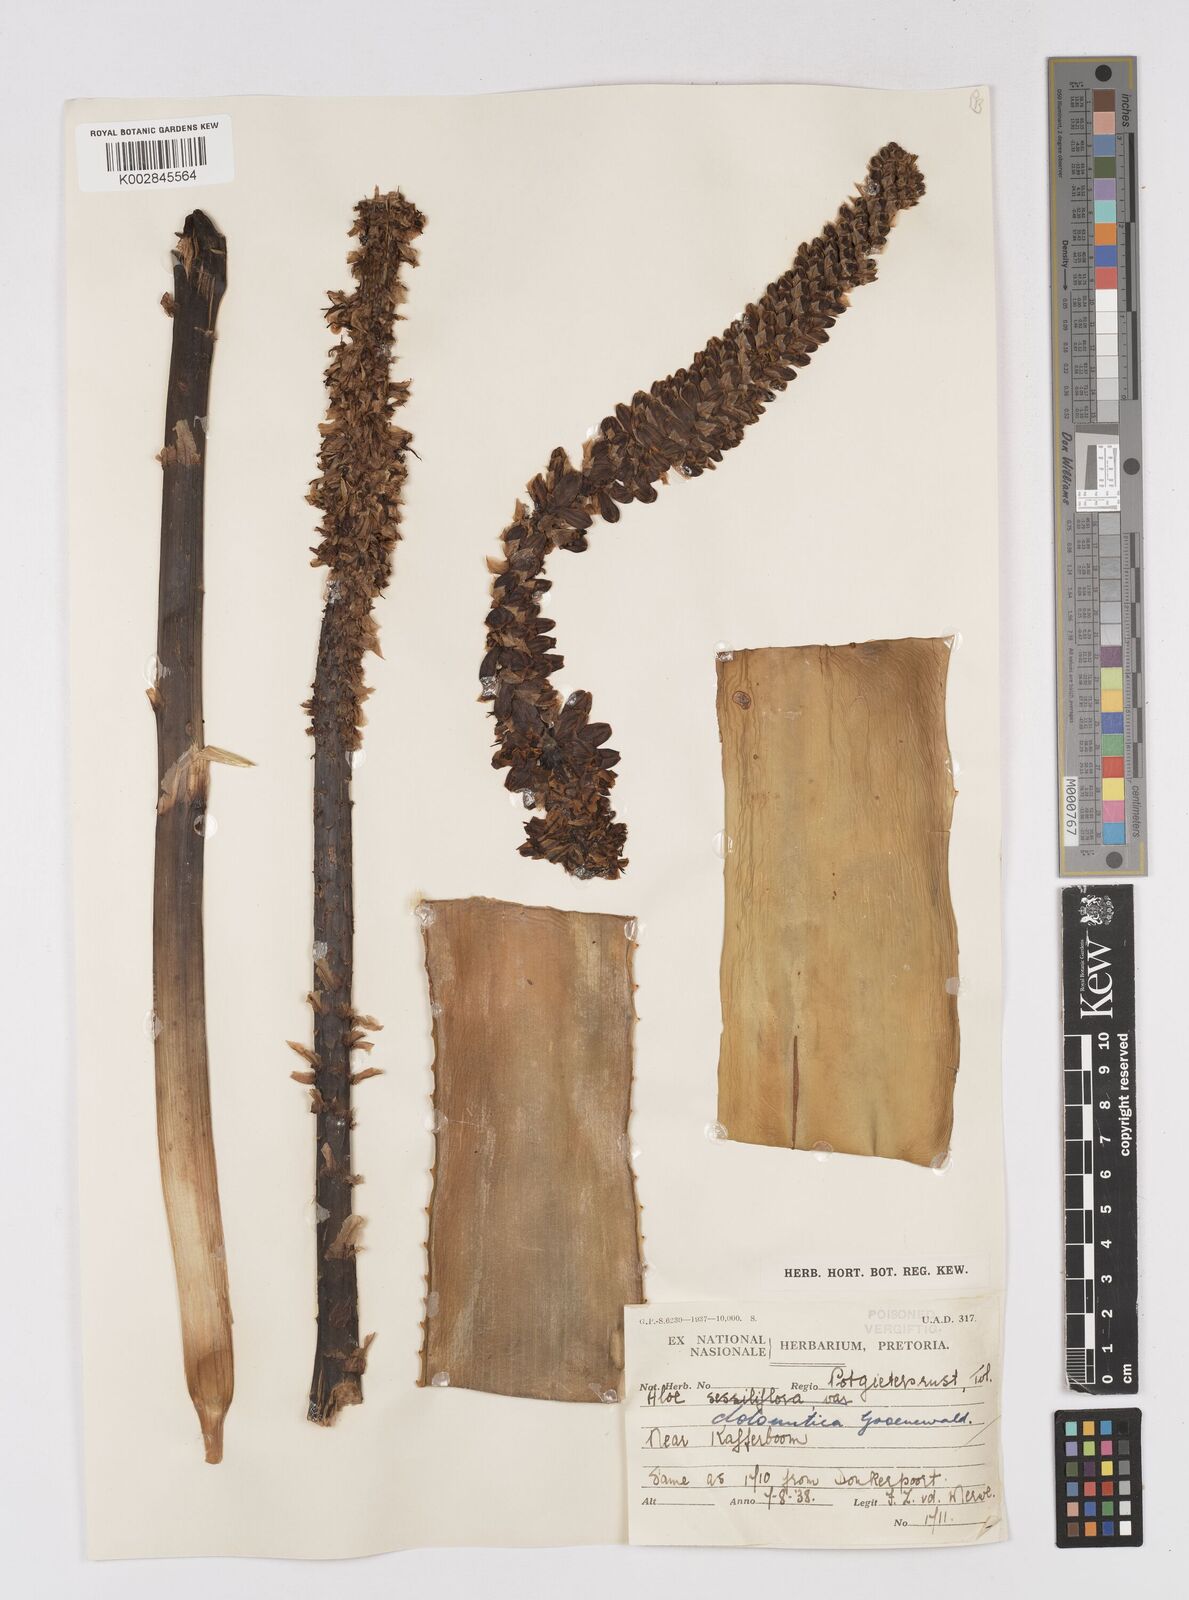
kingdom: Plantae
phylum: Tracheophyta
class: Liliopsida
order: Asparagales
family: Asphodelaceae
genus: Aloe
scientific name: Aloe vryheidensis
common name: Vryheid aloe
